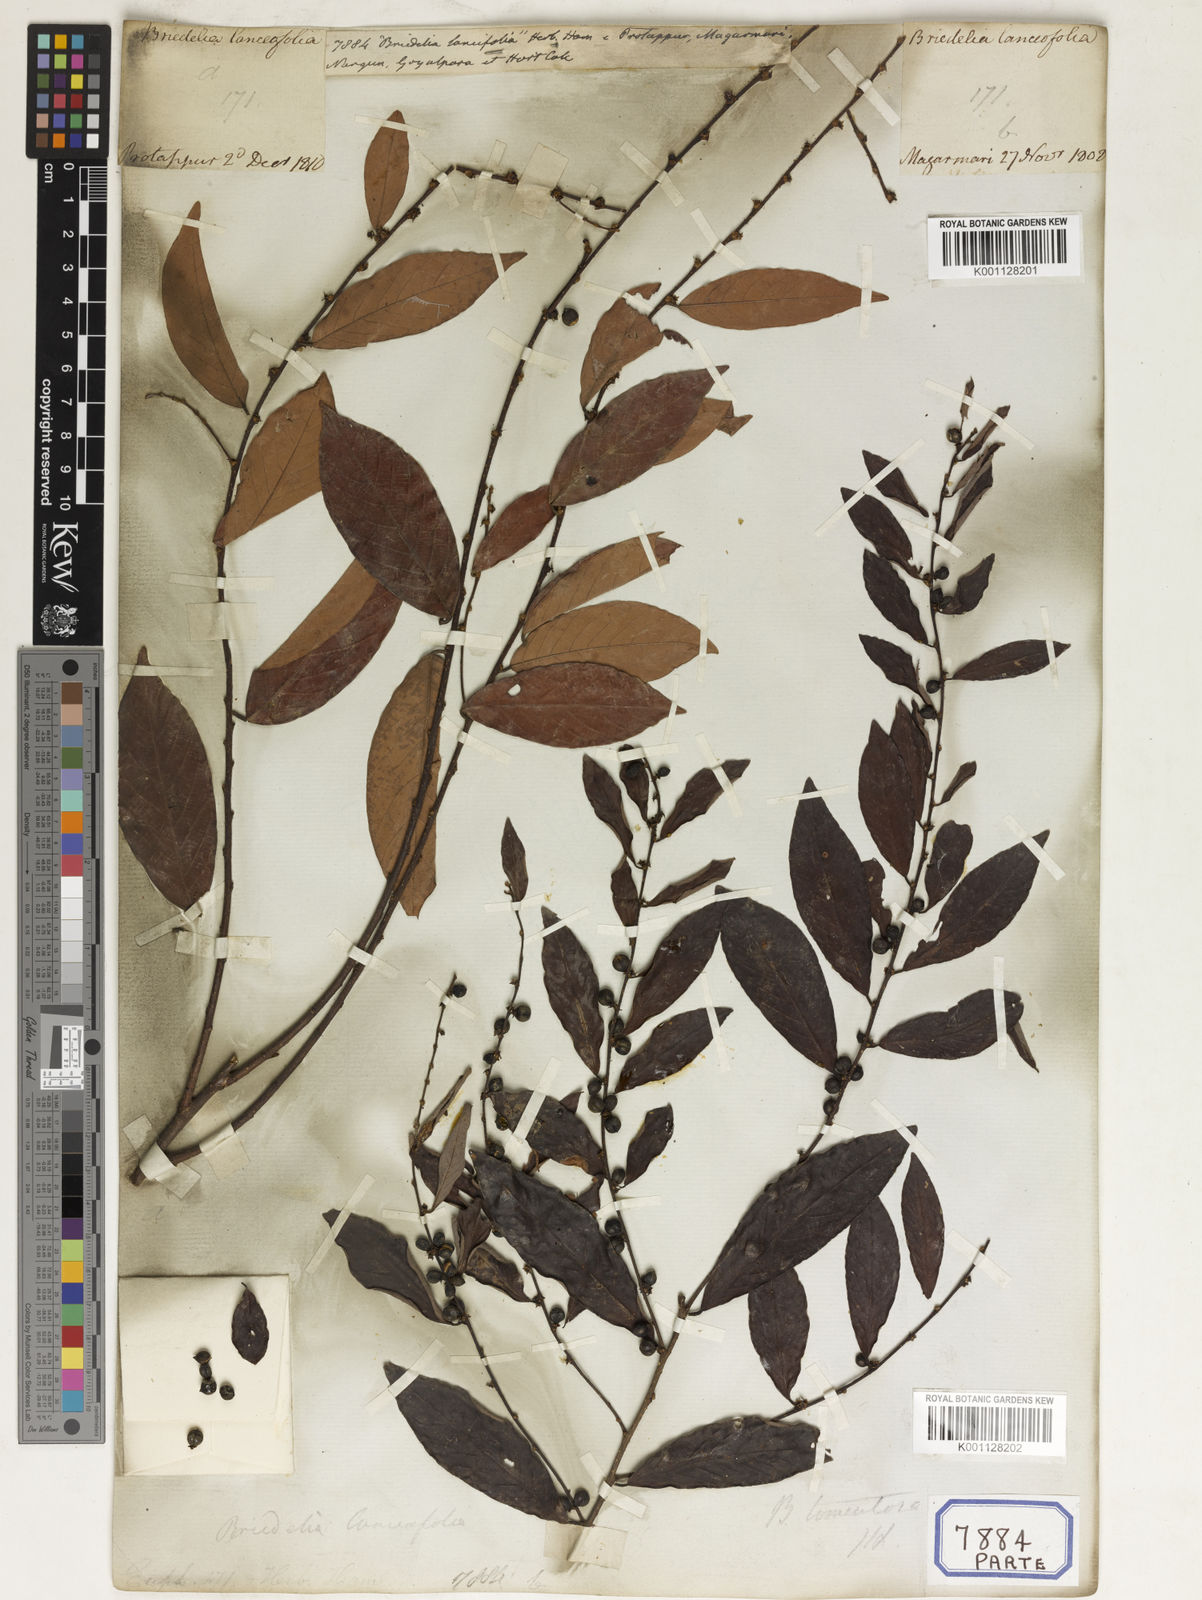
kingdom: Plantae
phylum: Tracheophyta
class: Magnoliopsida
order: Malpighiales
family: Euphorbiaceae
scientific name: Euphorbiaceae
